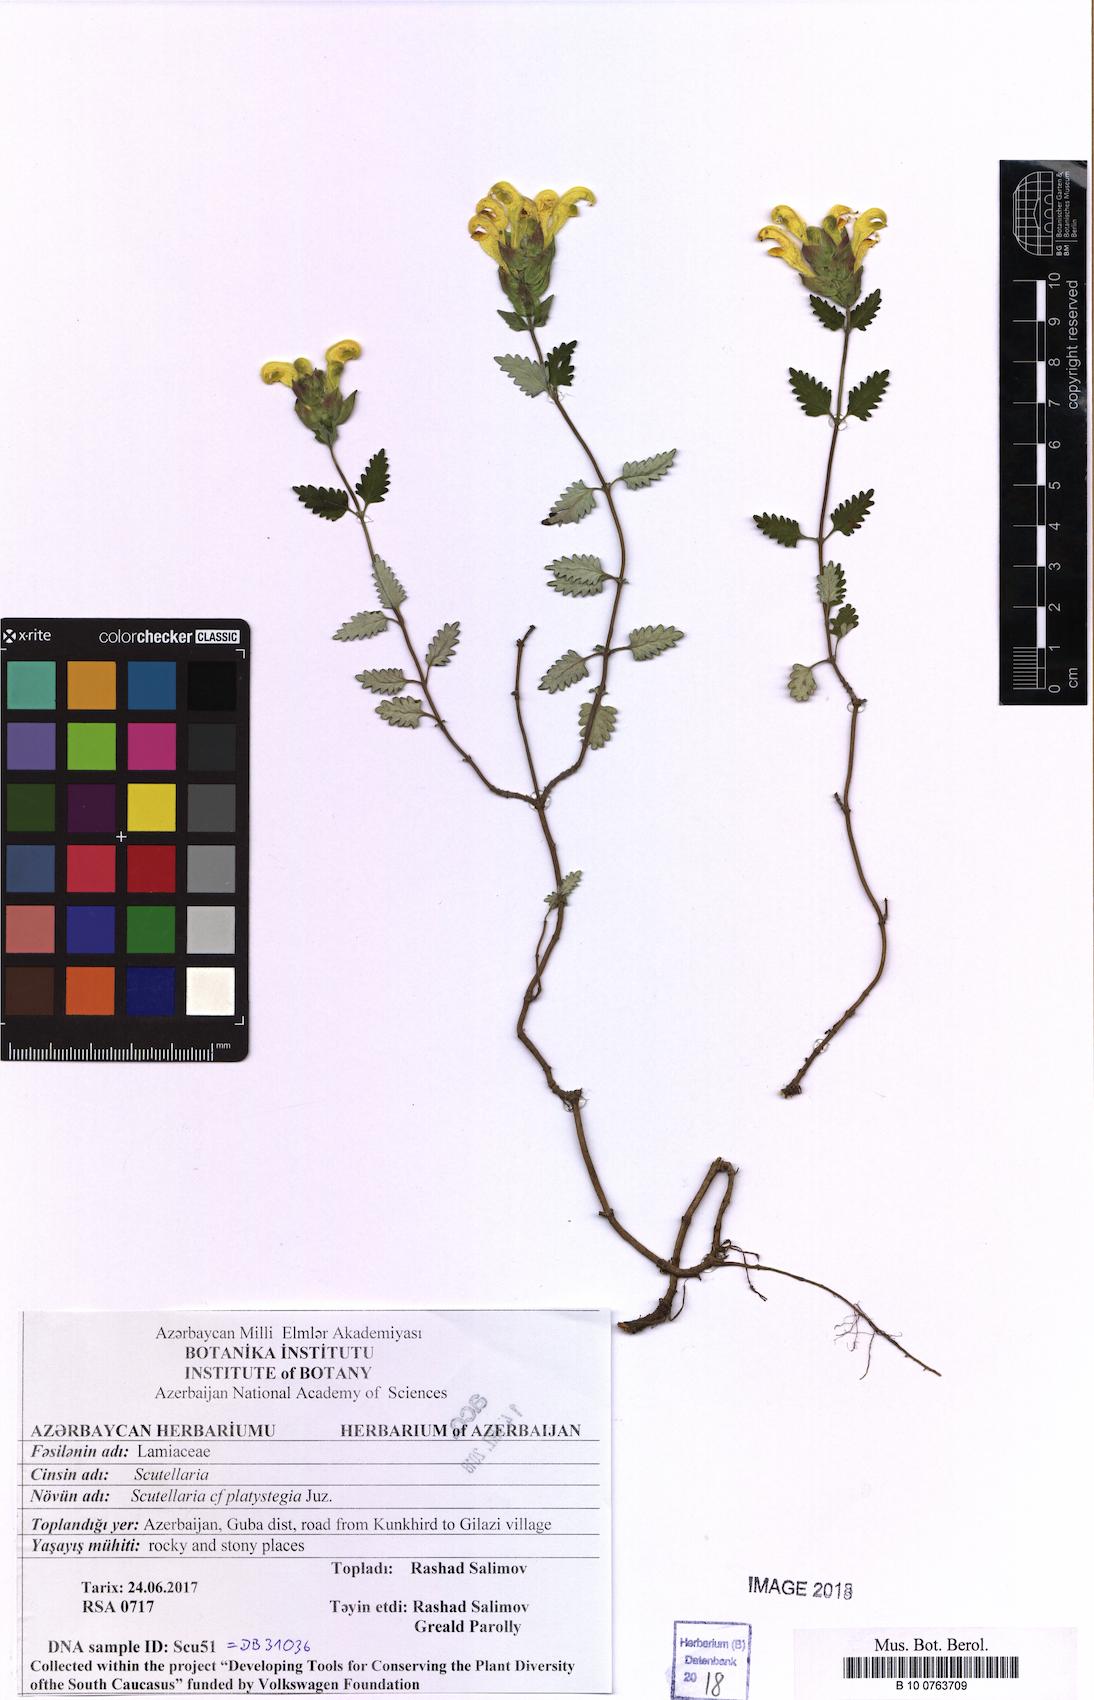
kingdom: Plantae
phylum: Tracheophyta
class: Magnoliopsida
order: Lamiales
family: Lamiaceae
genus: Scutellaria
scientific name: Scutellaria platystegia
